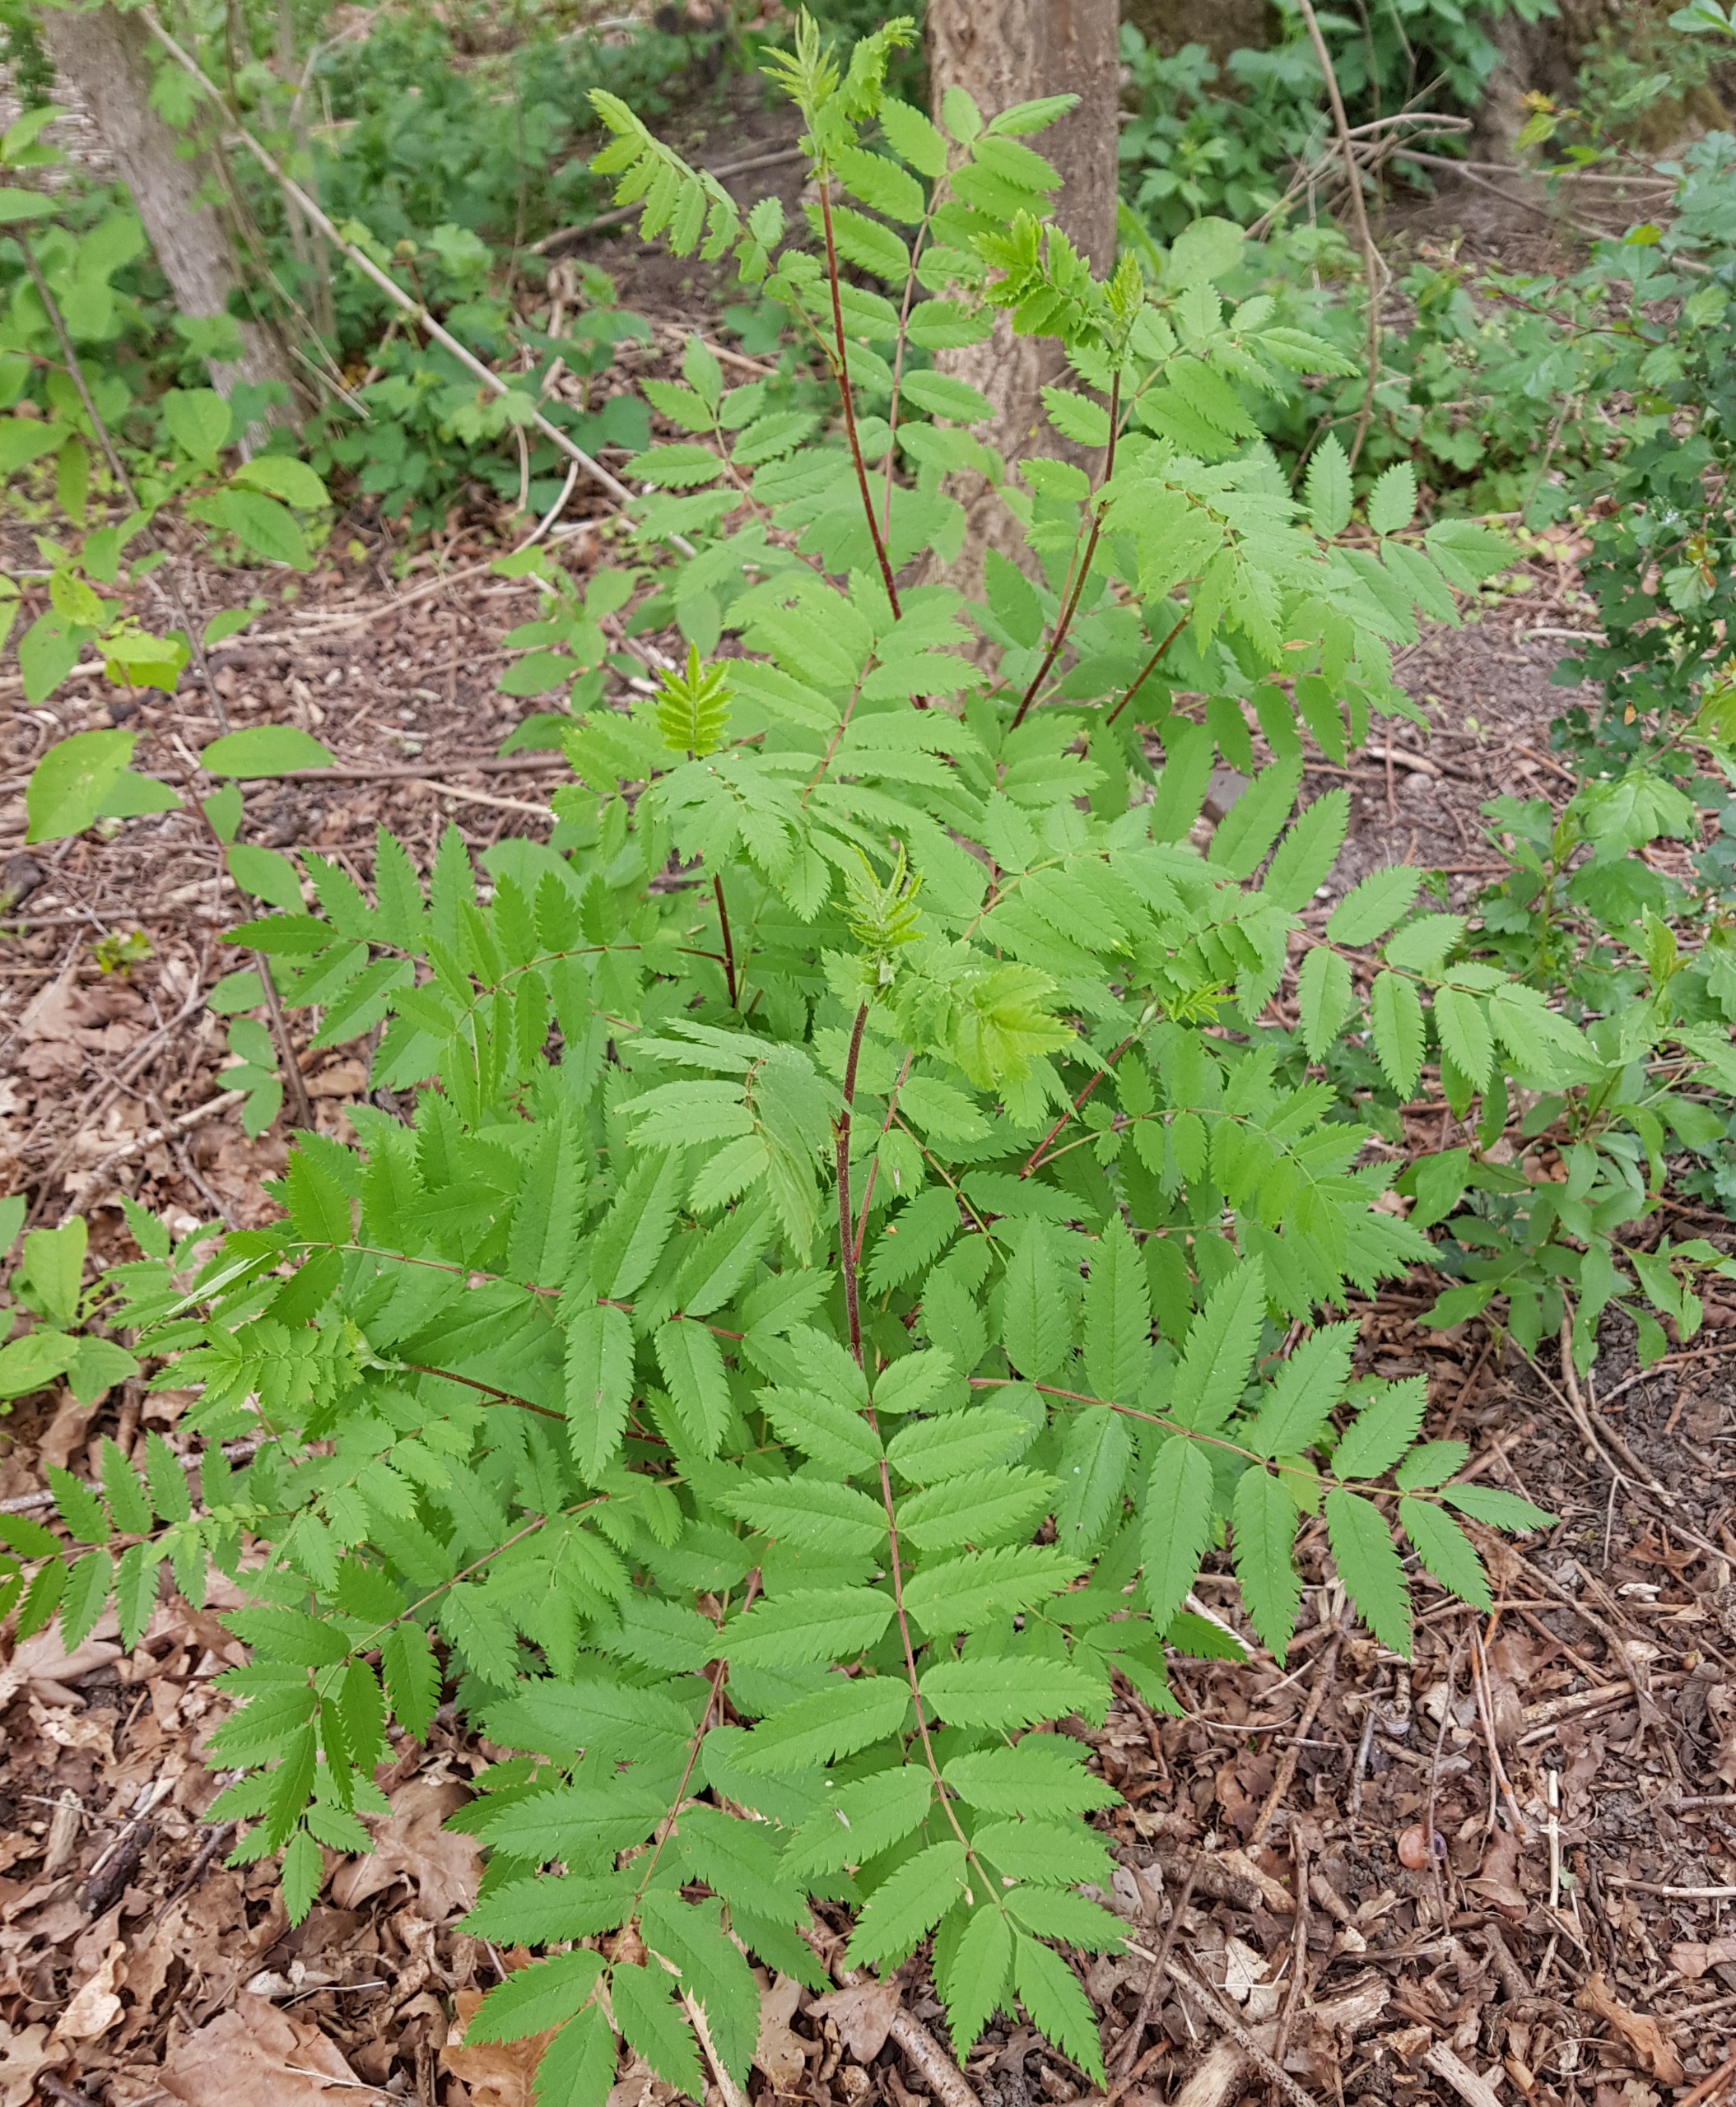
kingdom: Plantae
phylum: Tracheophyta
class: Magnoliopsida
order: Rosales
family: Rosaceae
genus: Sorbus
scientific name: Sorbus aucuparia
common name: Almindelig røn
